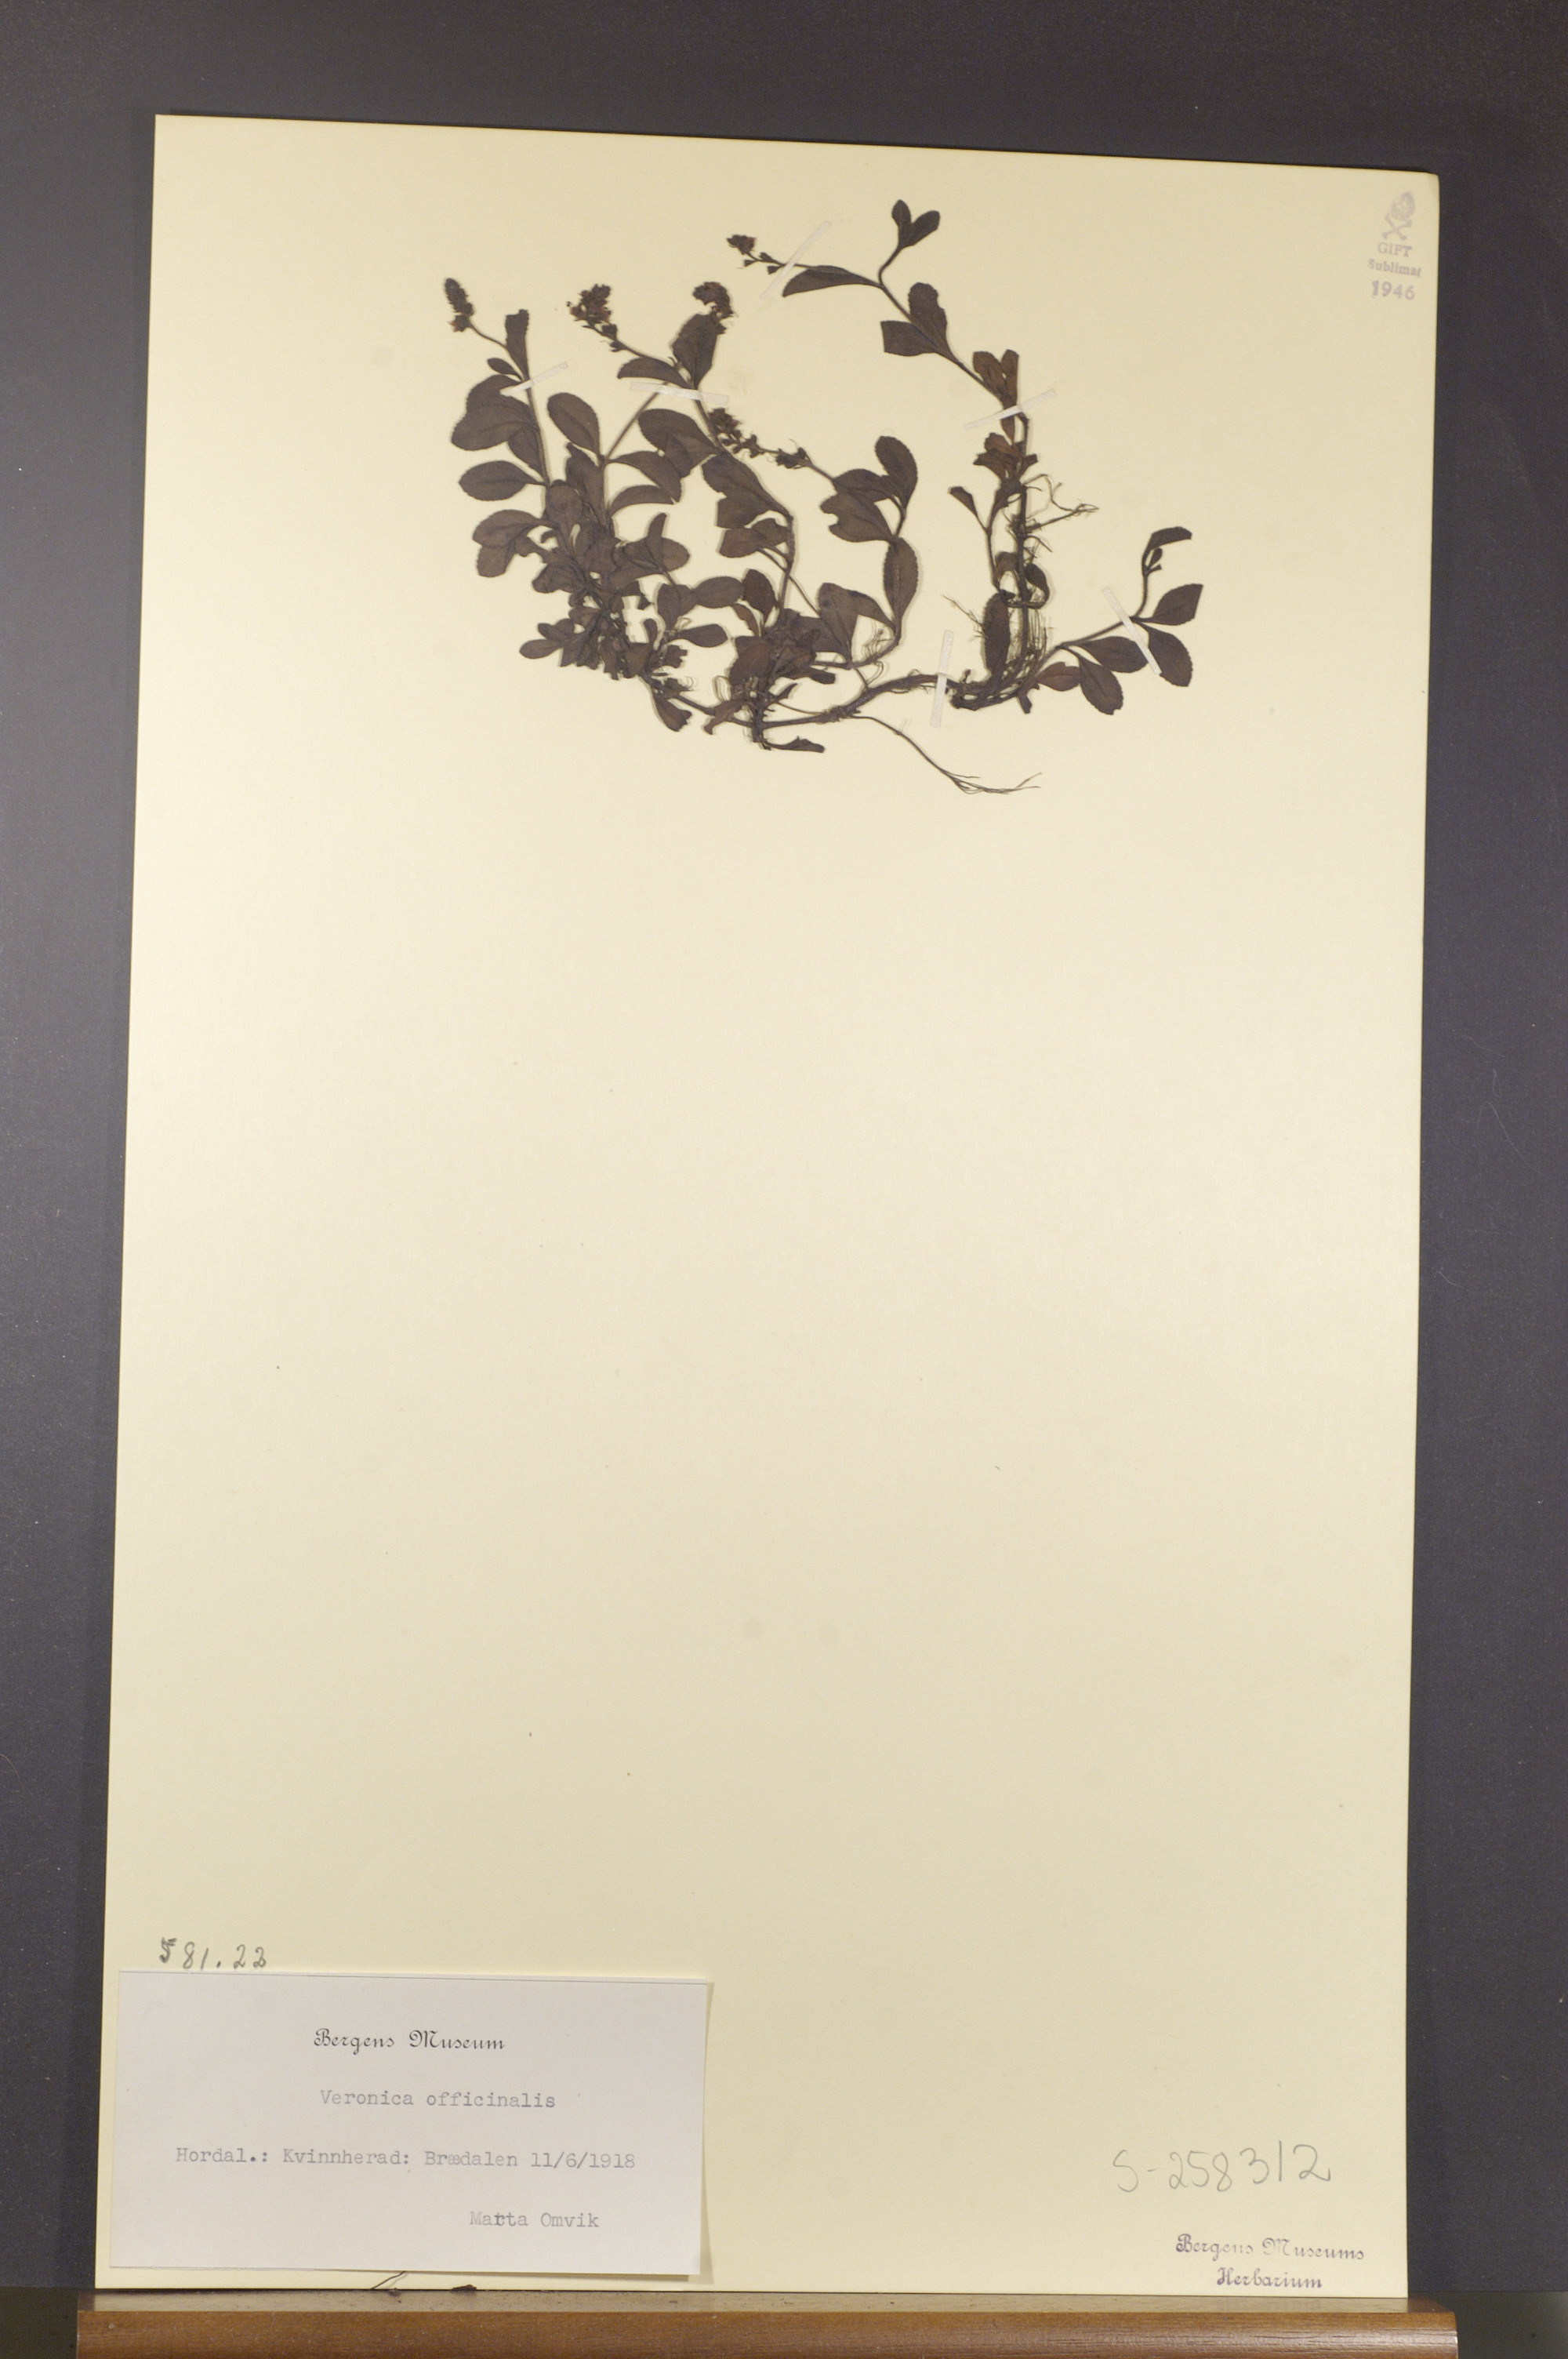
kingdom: Plantae
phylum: Tracheophyta
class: Magnoliopsida
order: Lamiales
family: Plantaginaceae
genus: Veronica
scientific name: Veronica officinalis
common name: Common speedwell
